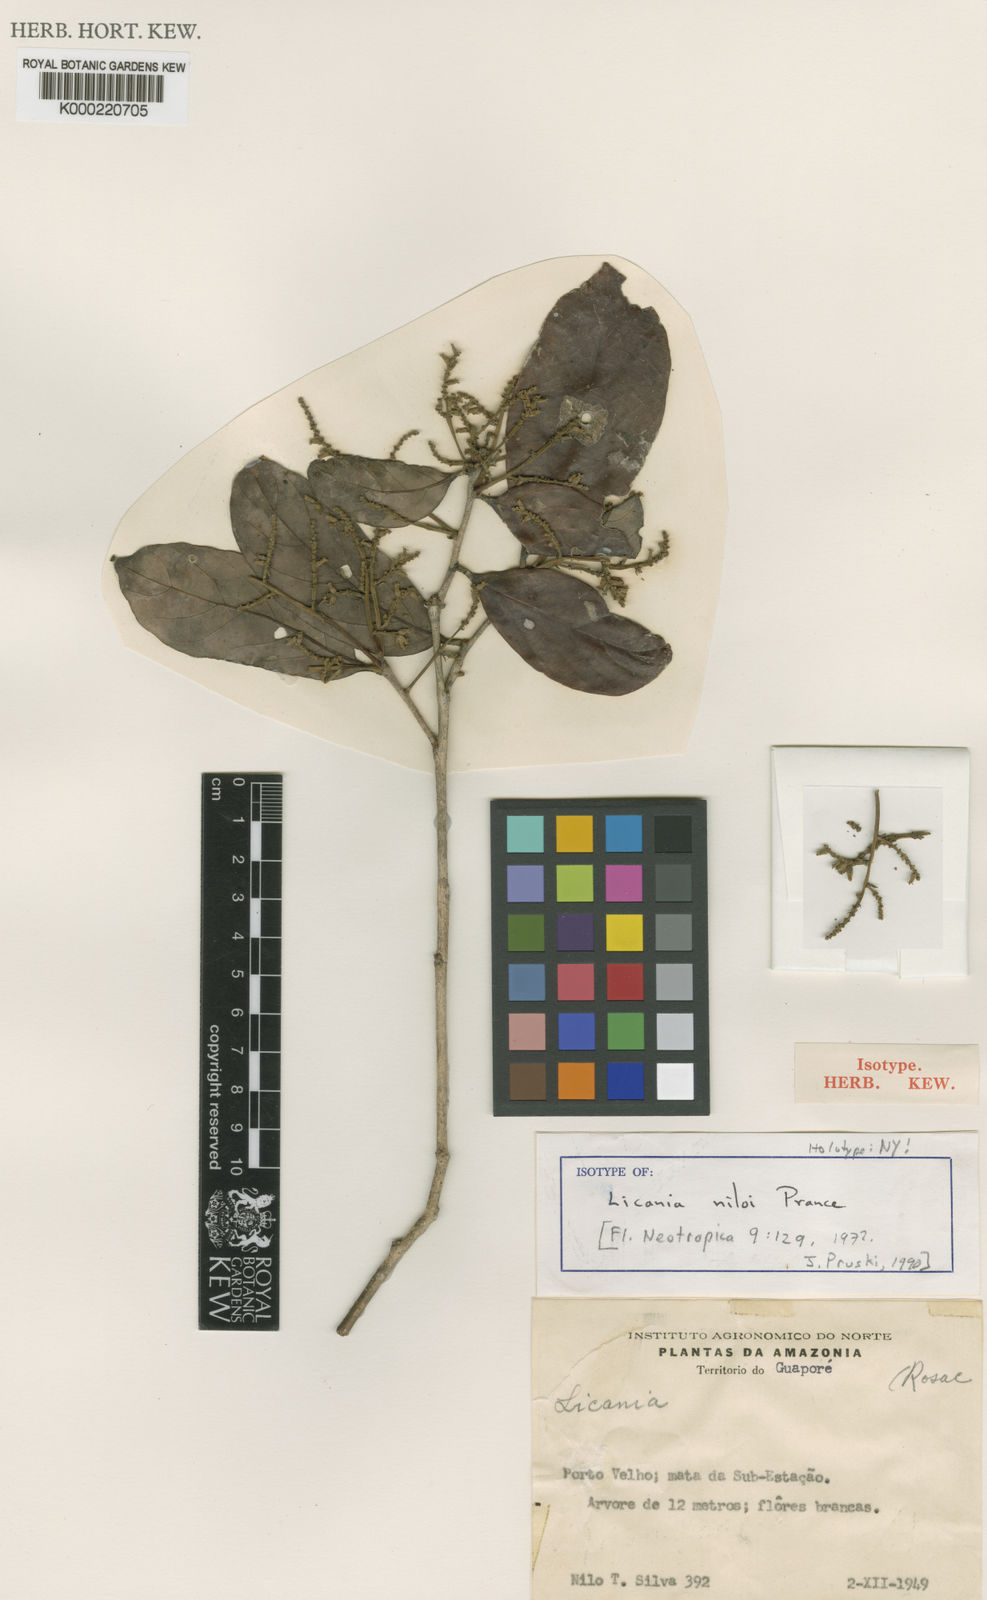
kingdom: Plantae
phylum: Tracheophyta
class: Magnoliopsida
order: Malpighiales
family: Chrysobalanaceae
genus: Licania
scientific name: Licania niloi
